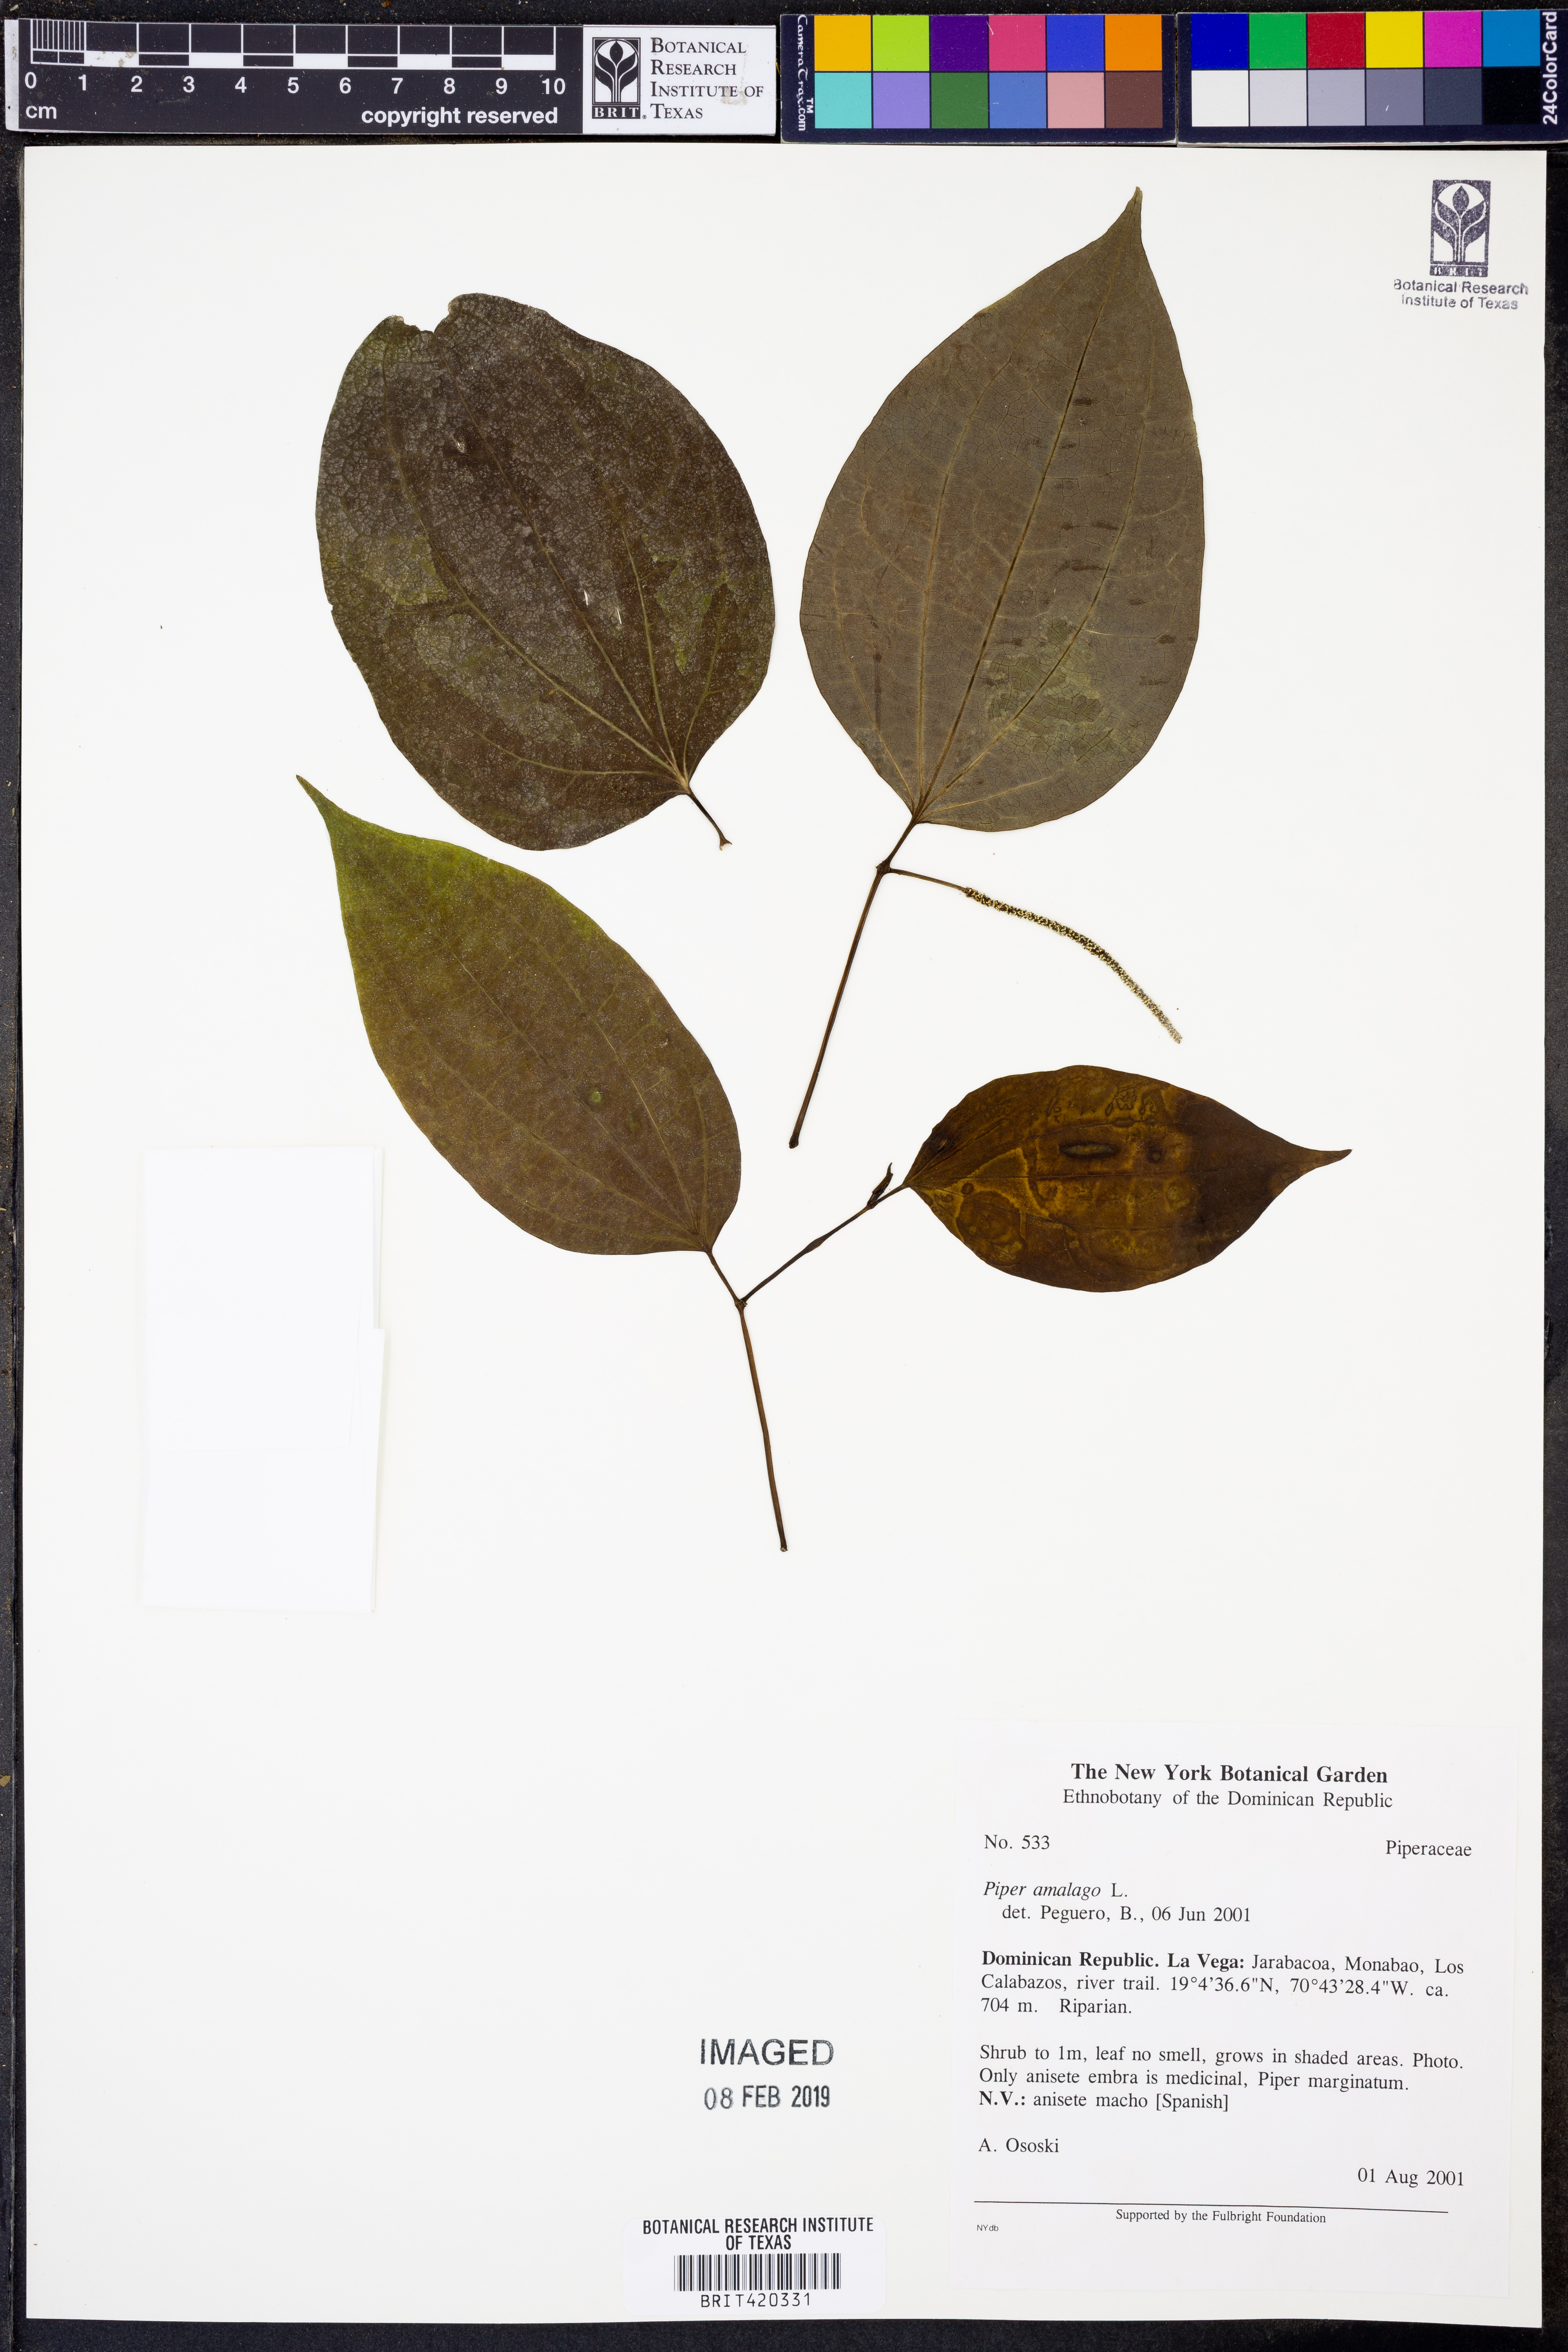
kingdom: Plantae
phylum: Tracheophyta
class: Magnoliopsida
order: Piperales
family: Piperaceae
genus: Piper
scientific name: Piper amalago
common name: Pepper-elder
